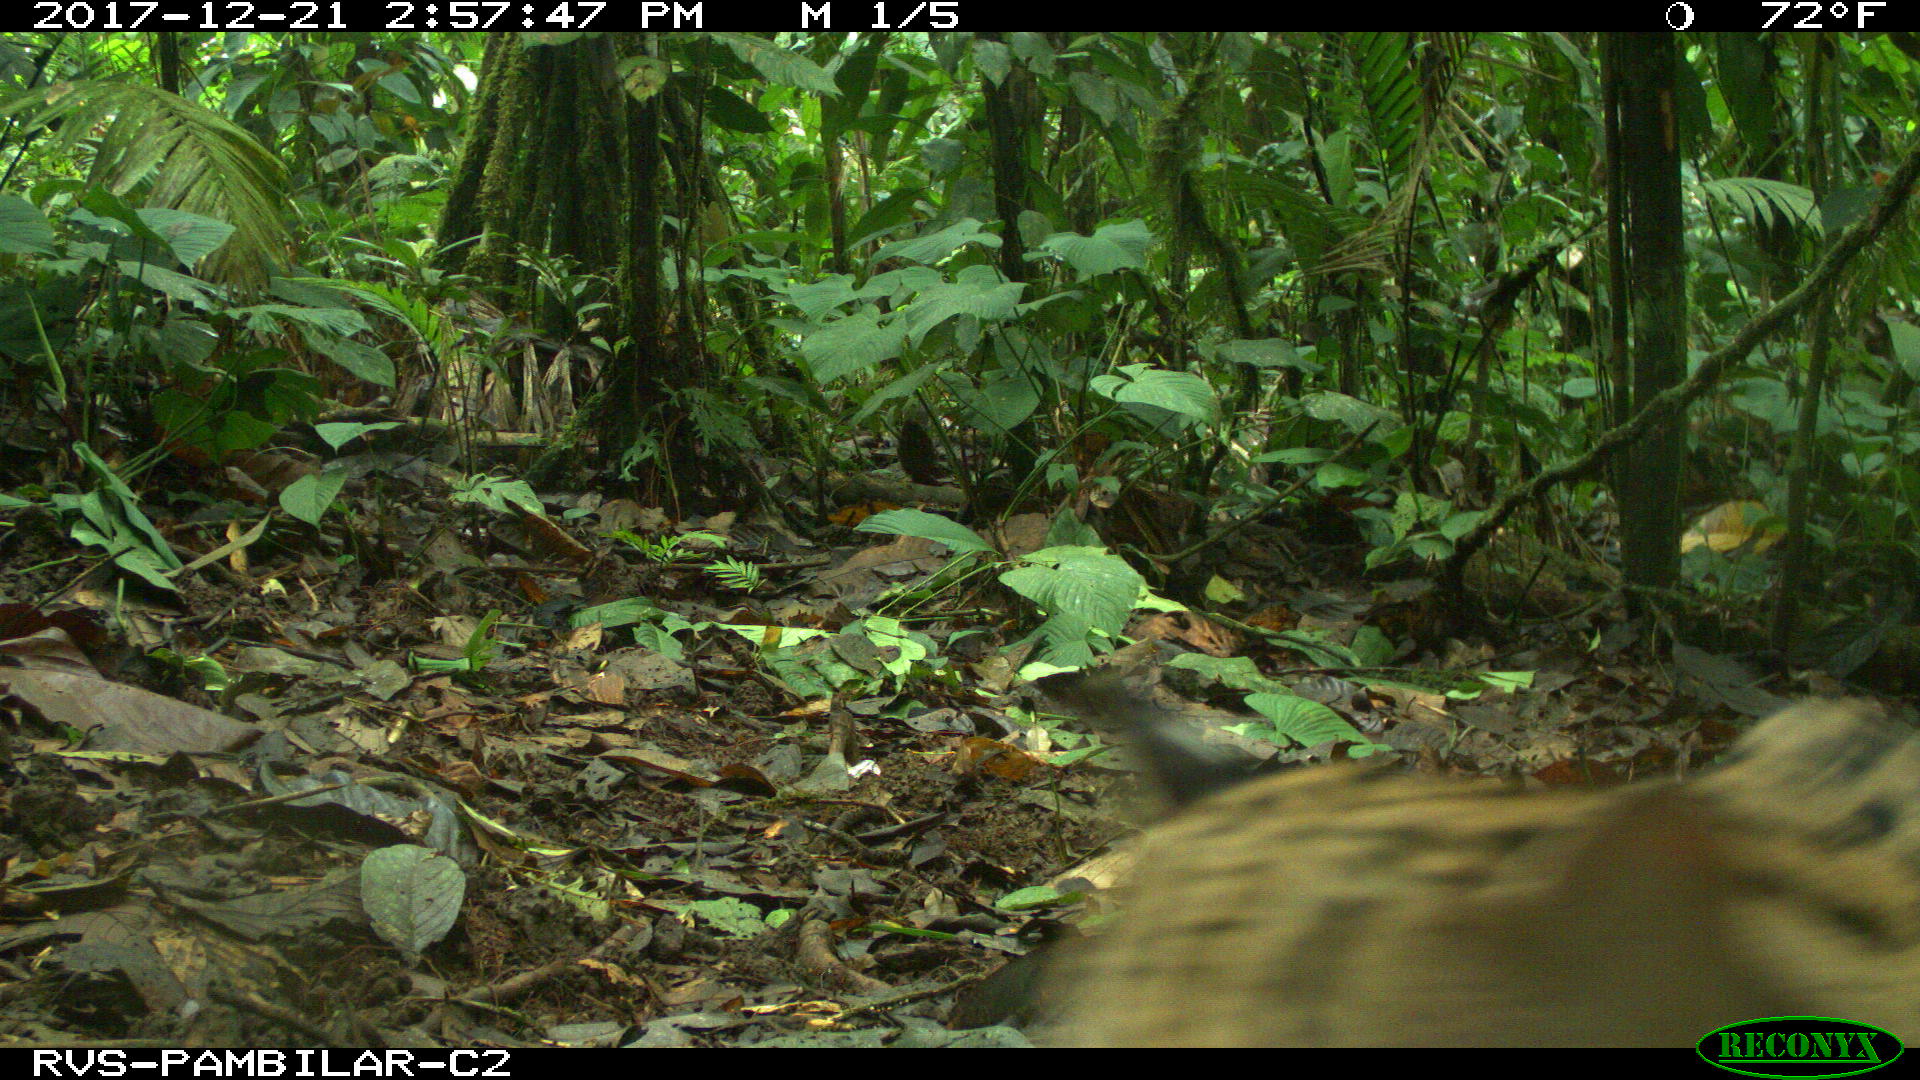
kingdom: Animalia
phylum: Chordata
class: Mammalia
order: Carnivora
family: Felidae
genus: Leopardus
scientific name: Leopardus pardalis
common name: Ocelot
